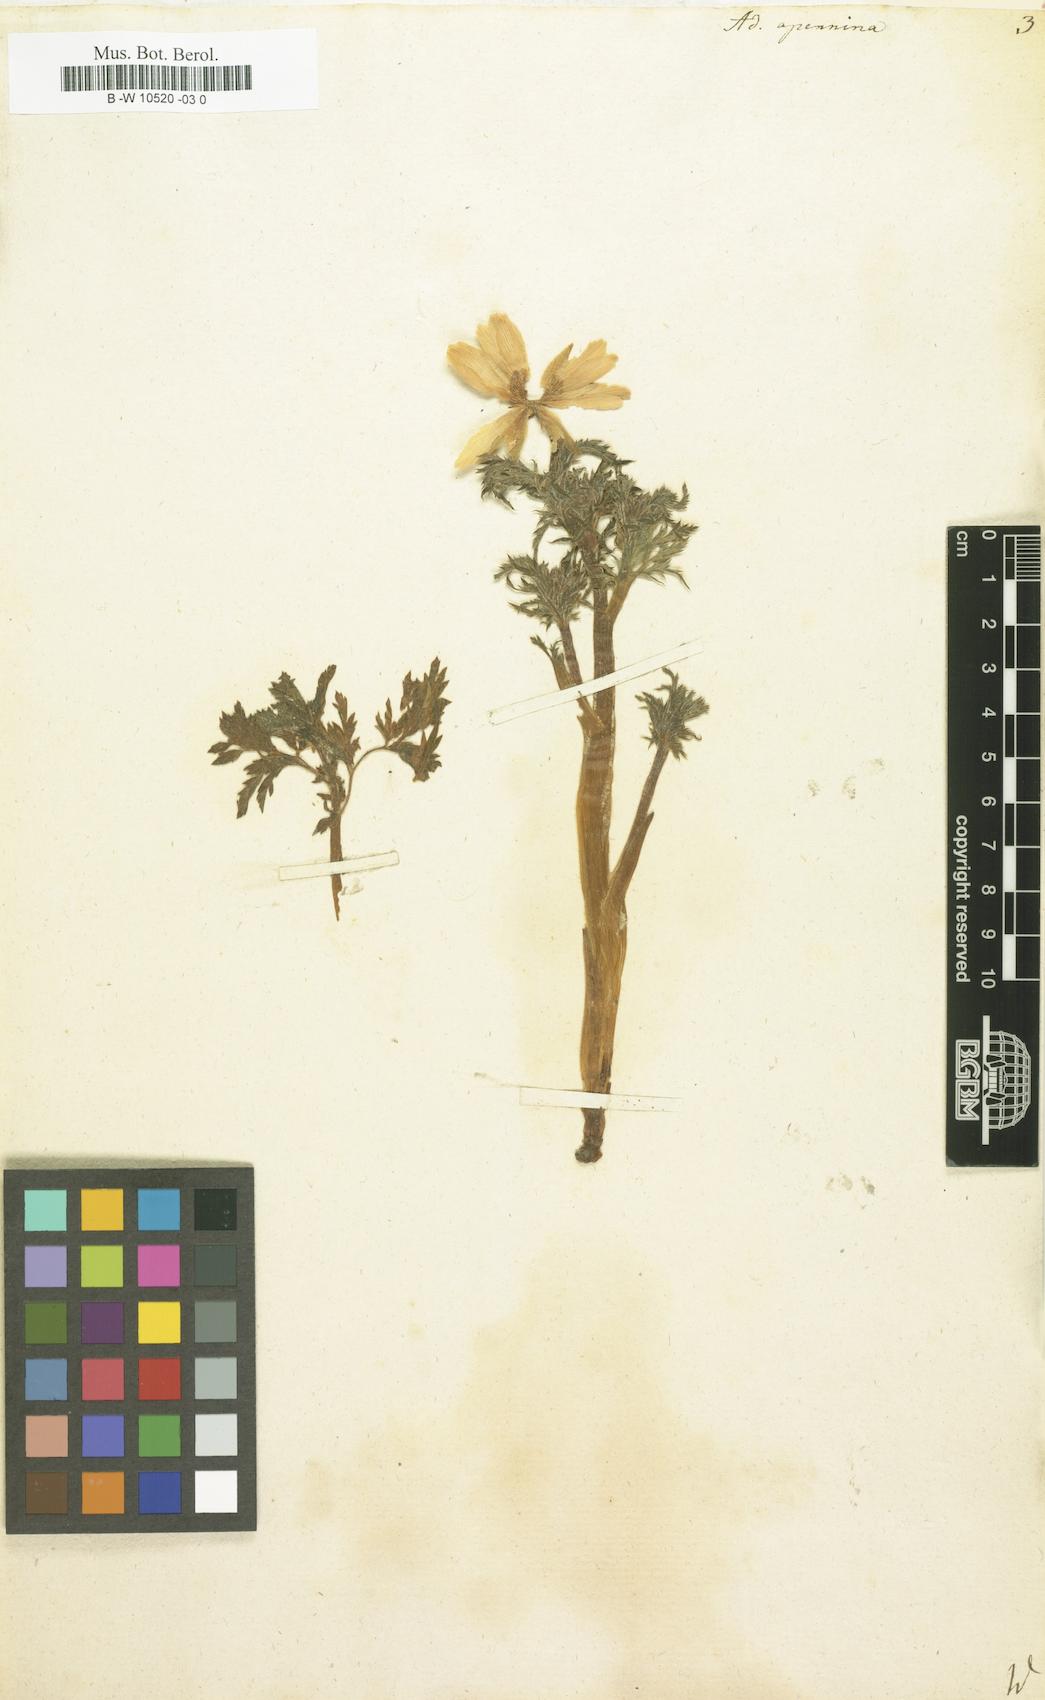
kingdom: Plantae
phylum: Tracheophyta
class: Magnoliopsida
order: Ranunculales
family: Ranunculaceae
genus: Adonis
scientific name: Adonis vernalis
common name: Yellow pheasants-eye
